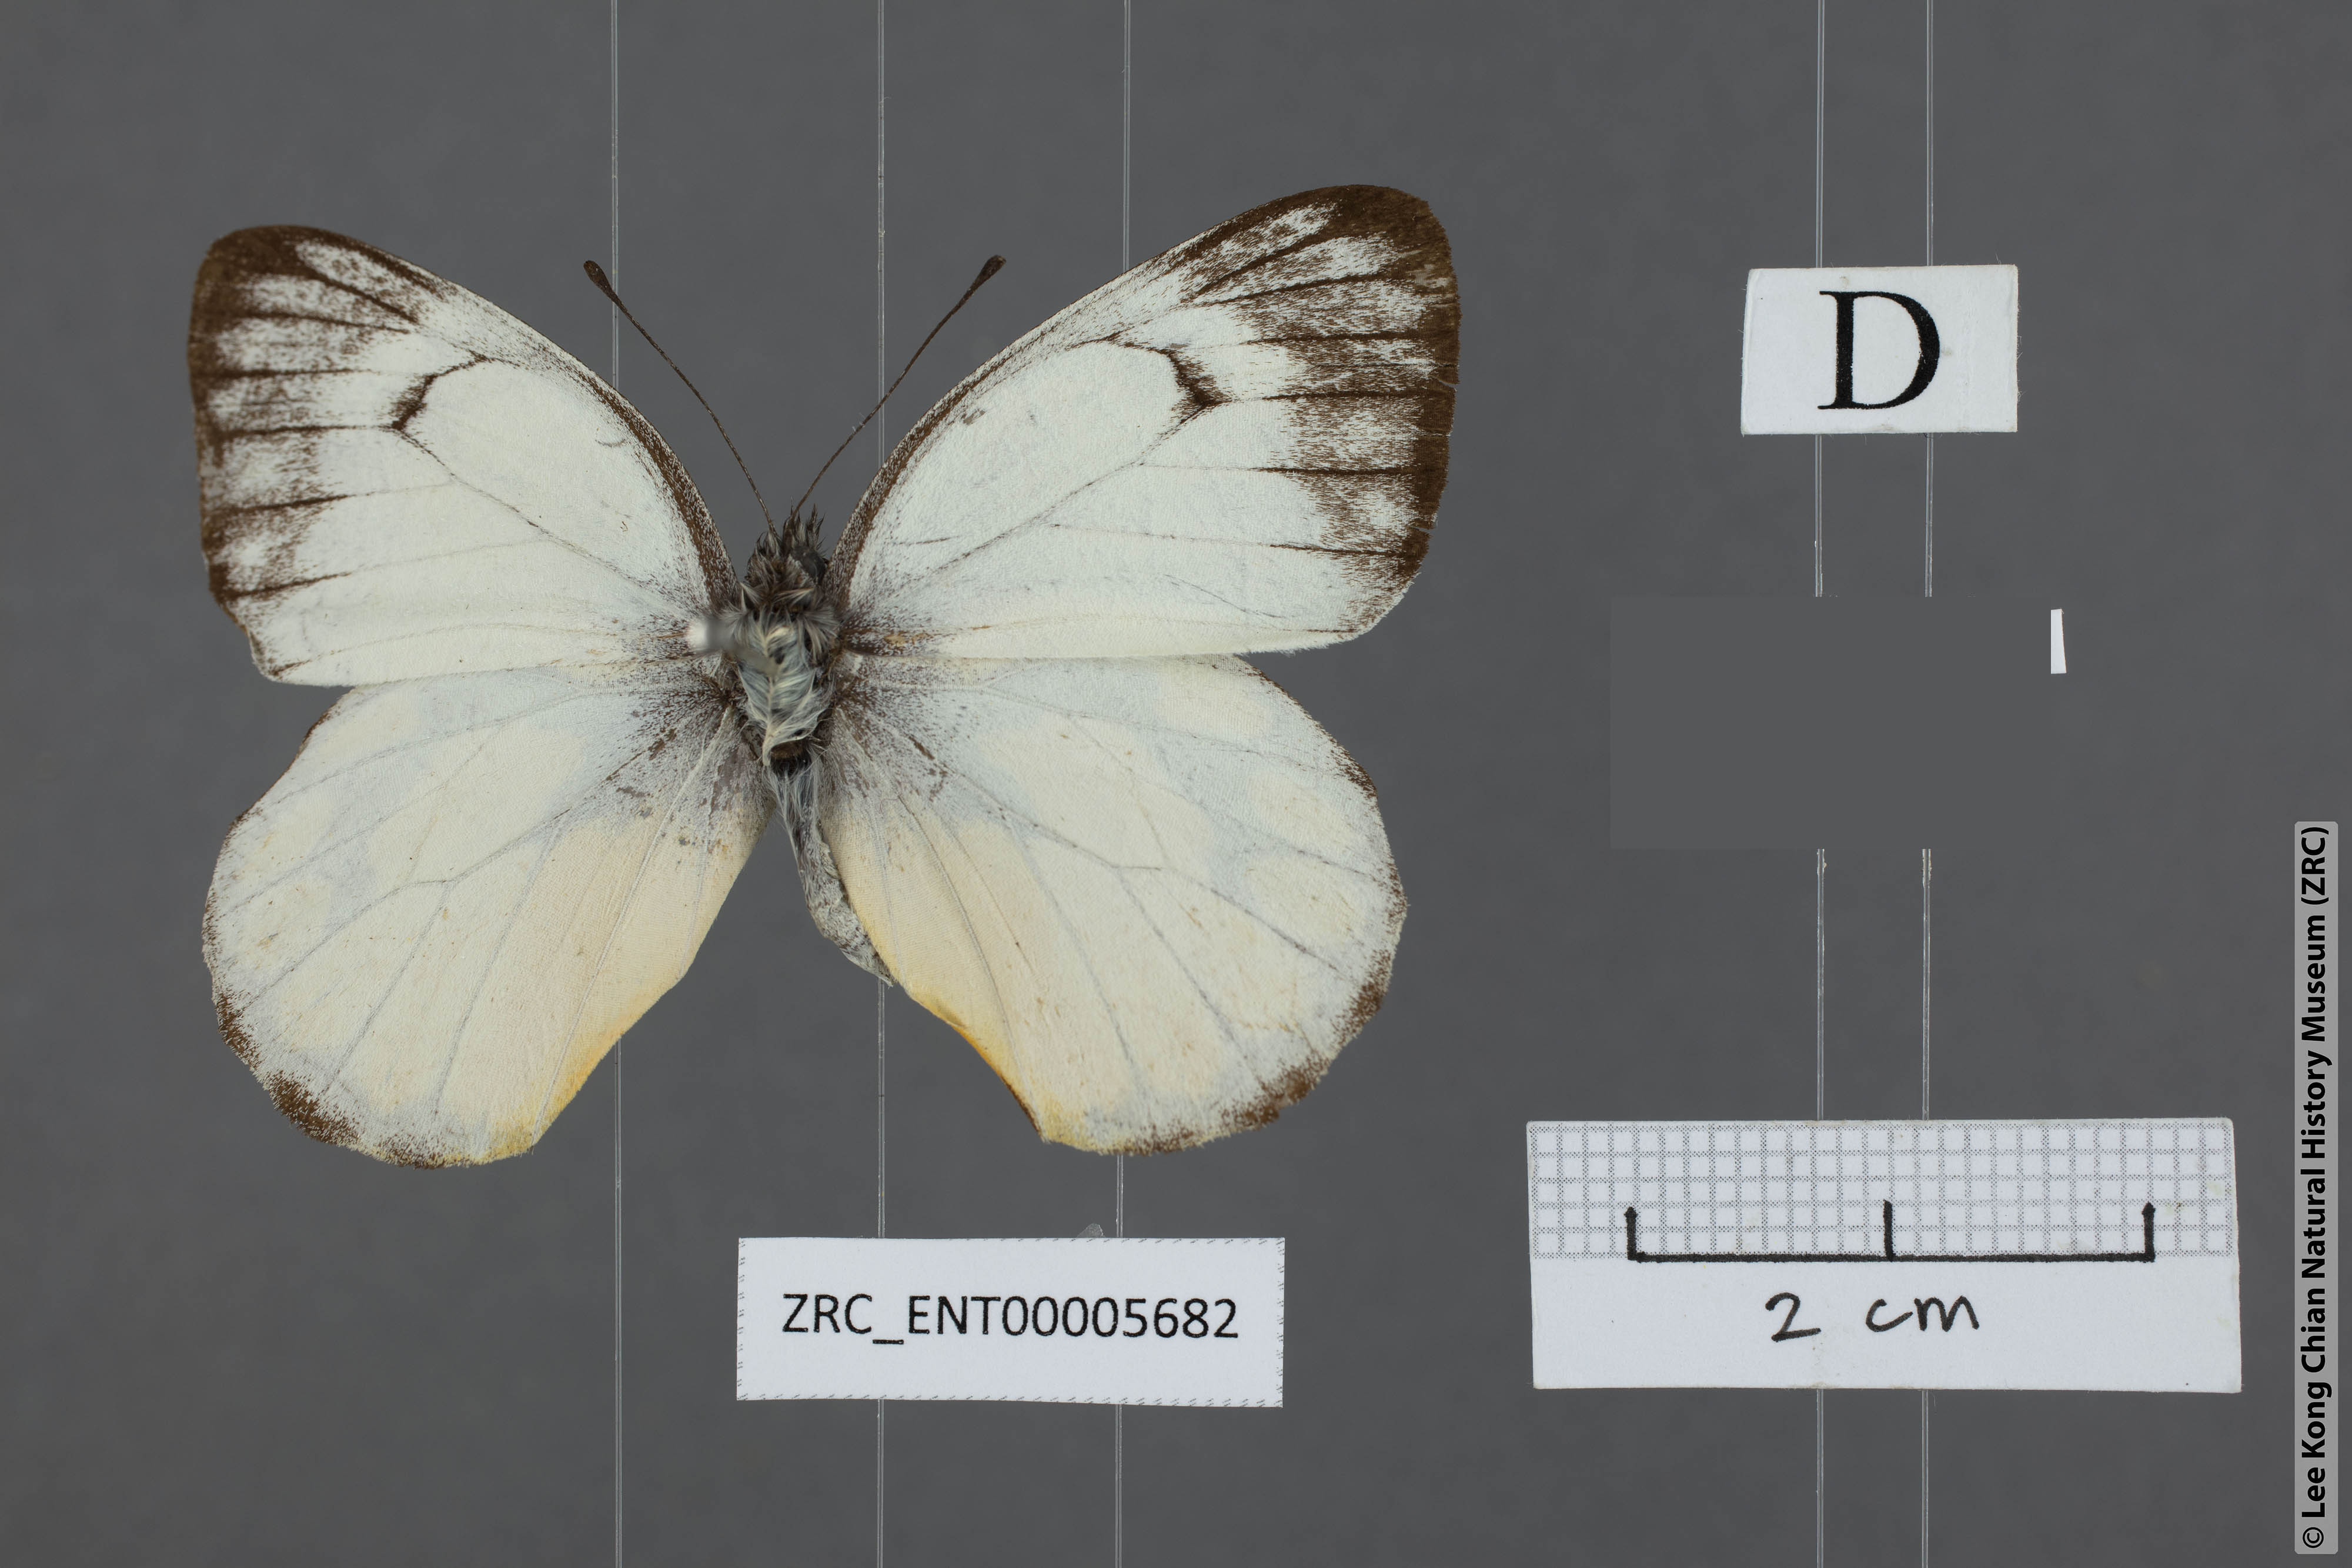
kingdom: Animalia
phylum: Arthropoda
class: Insecta
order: Lepidoptera
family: Pieridae
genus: Delias
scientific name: Delias georgina
